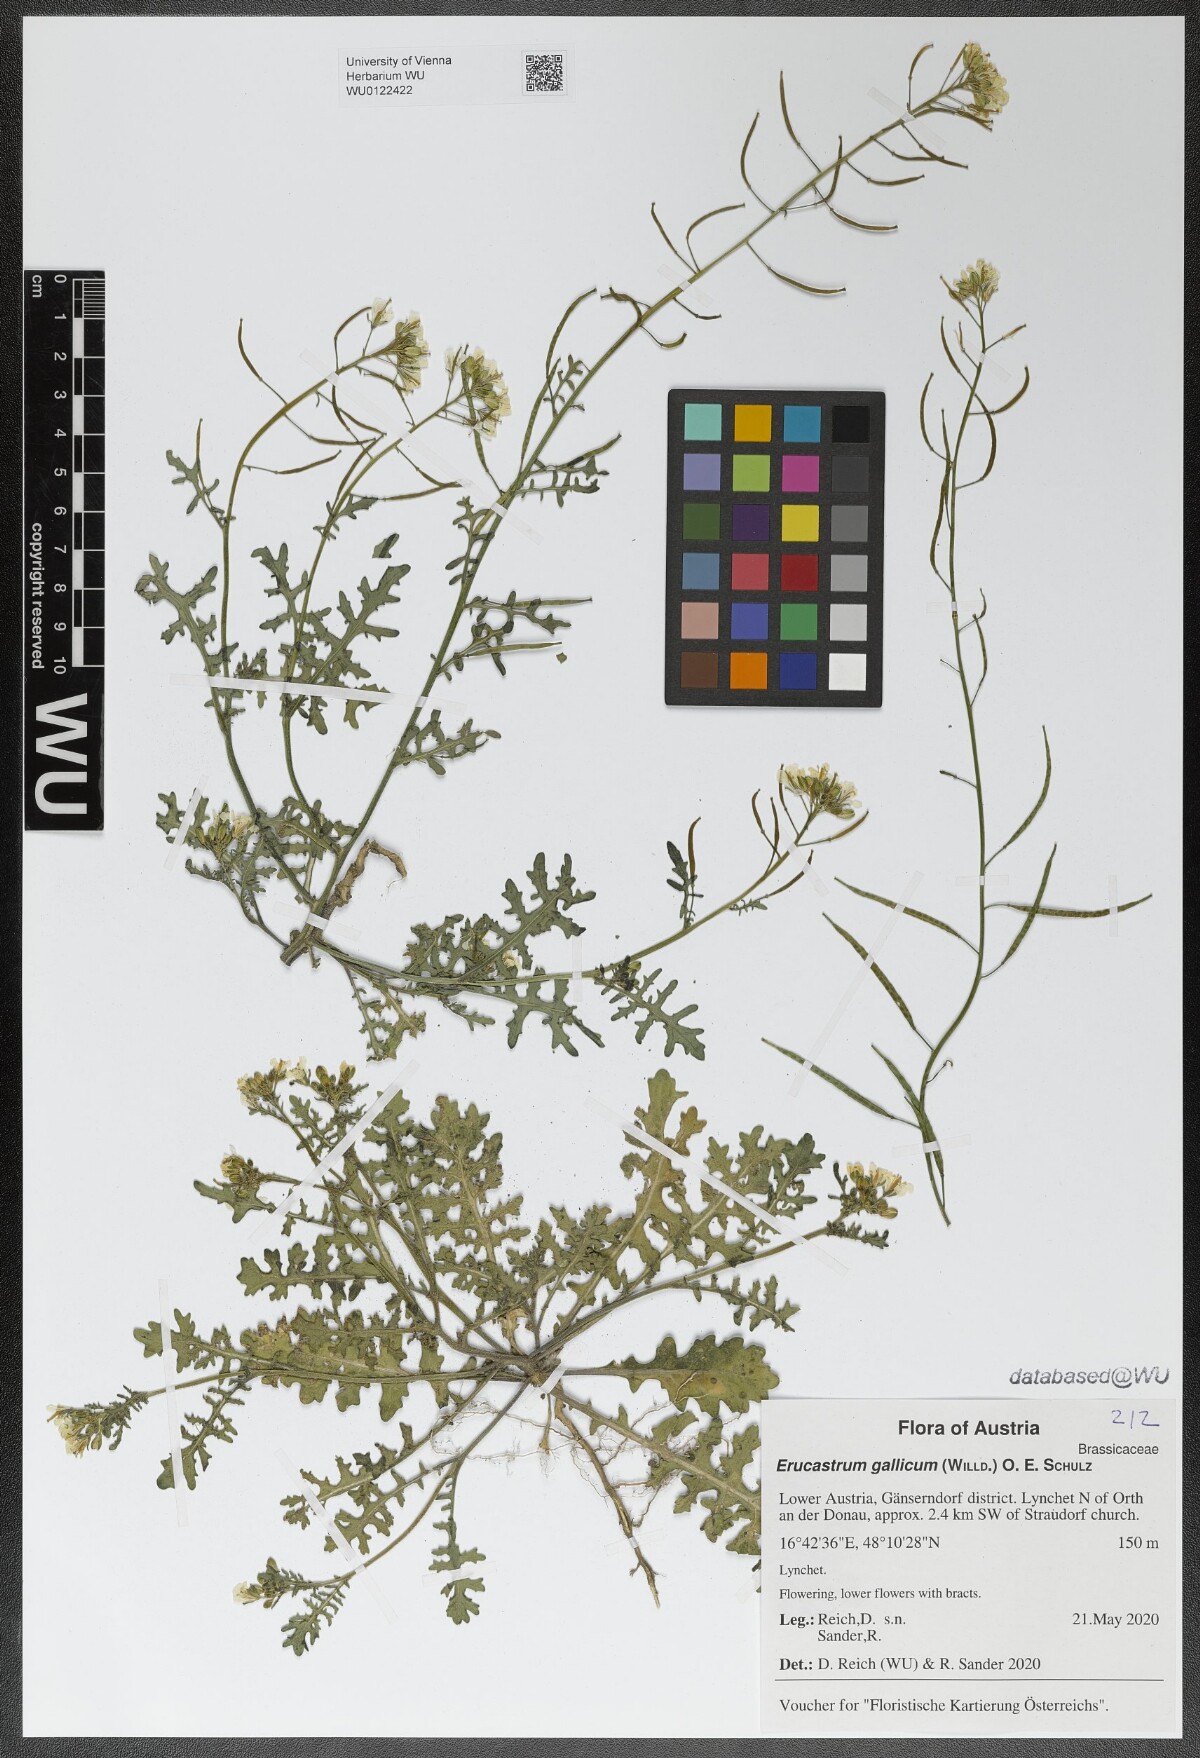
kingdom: Plantae
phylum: Tracheophyta
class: Magnoliopsida
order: Brassicales
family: Brassicaceae
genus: Erucastrum
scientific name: Erucastrum gallicum
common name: Hairy rocket
